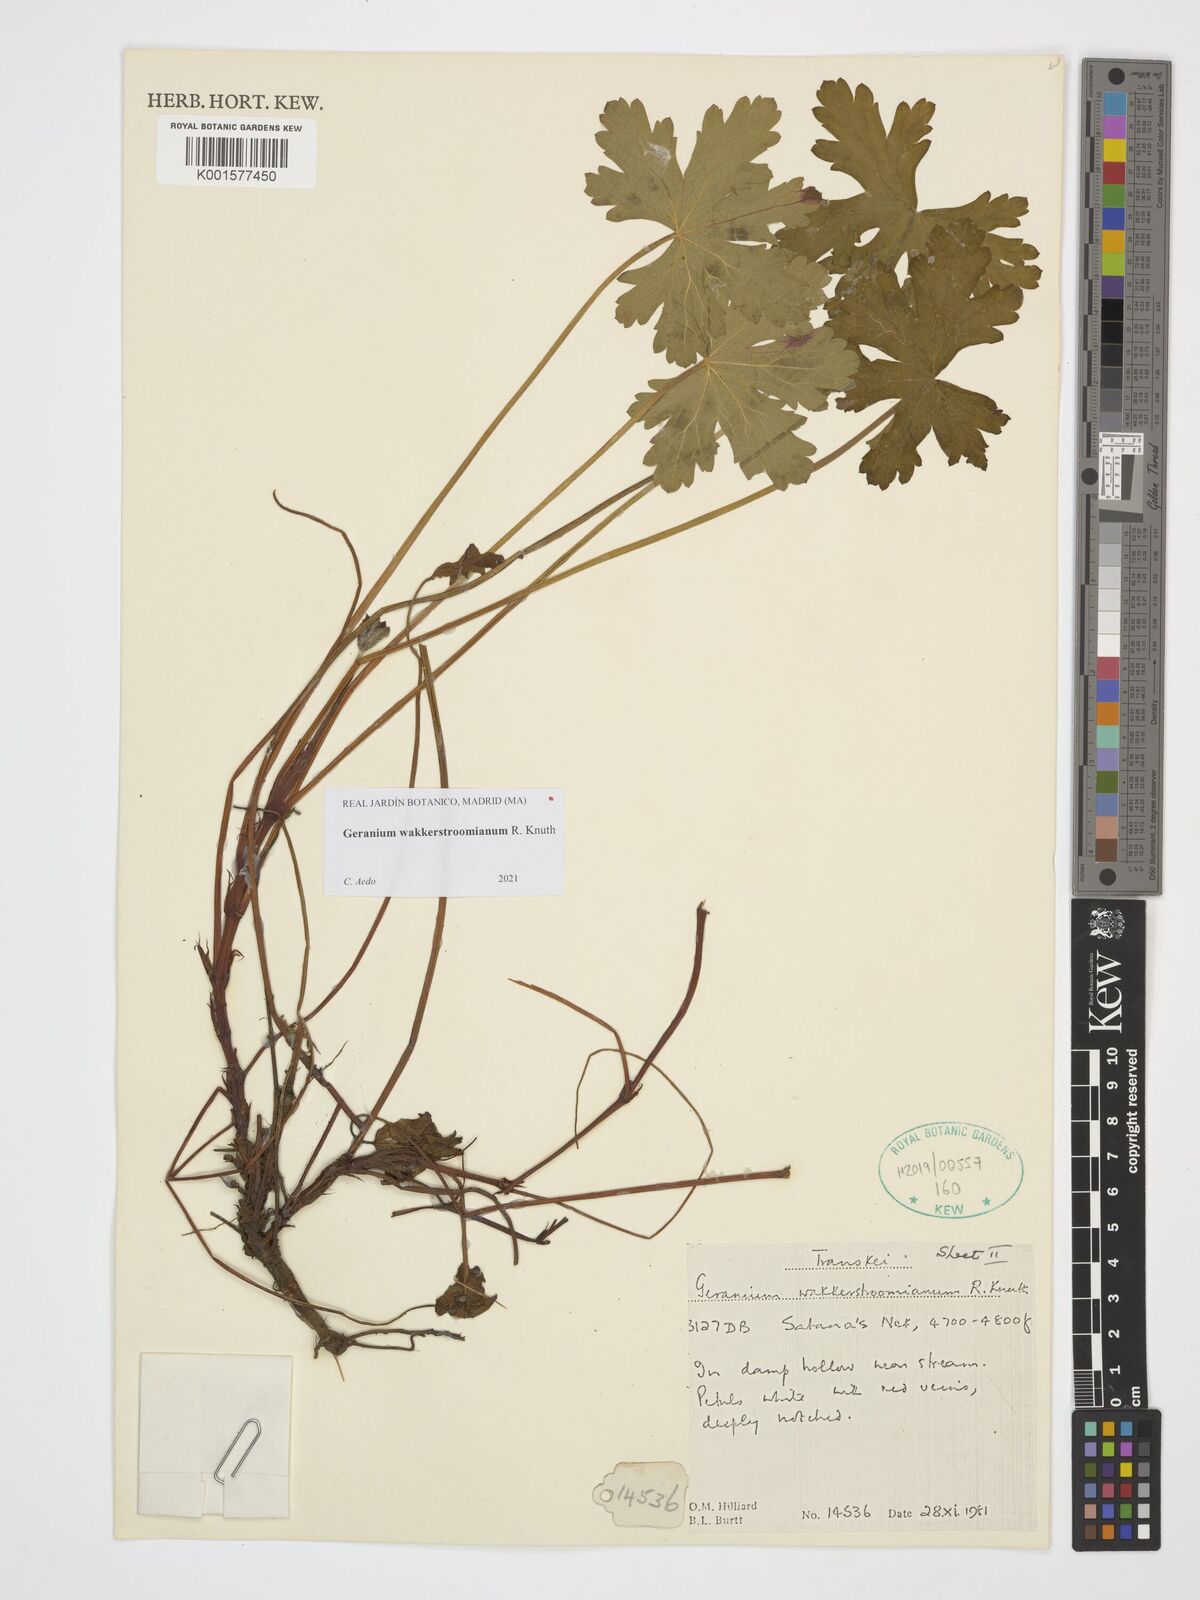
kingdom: Plantae
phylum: Tracheophyta
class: Magnoliopsida
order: Geraniales
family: Geraniaceae
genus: Geranium
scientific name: Geranium wakkerstroomianum
